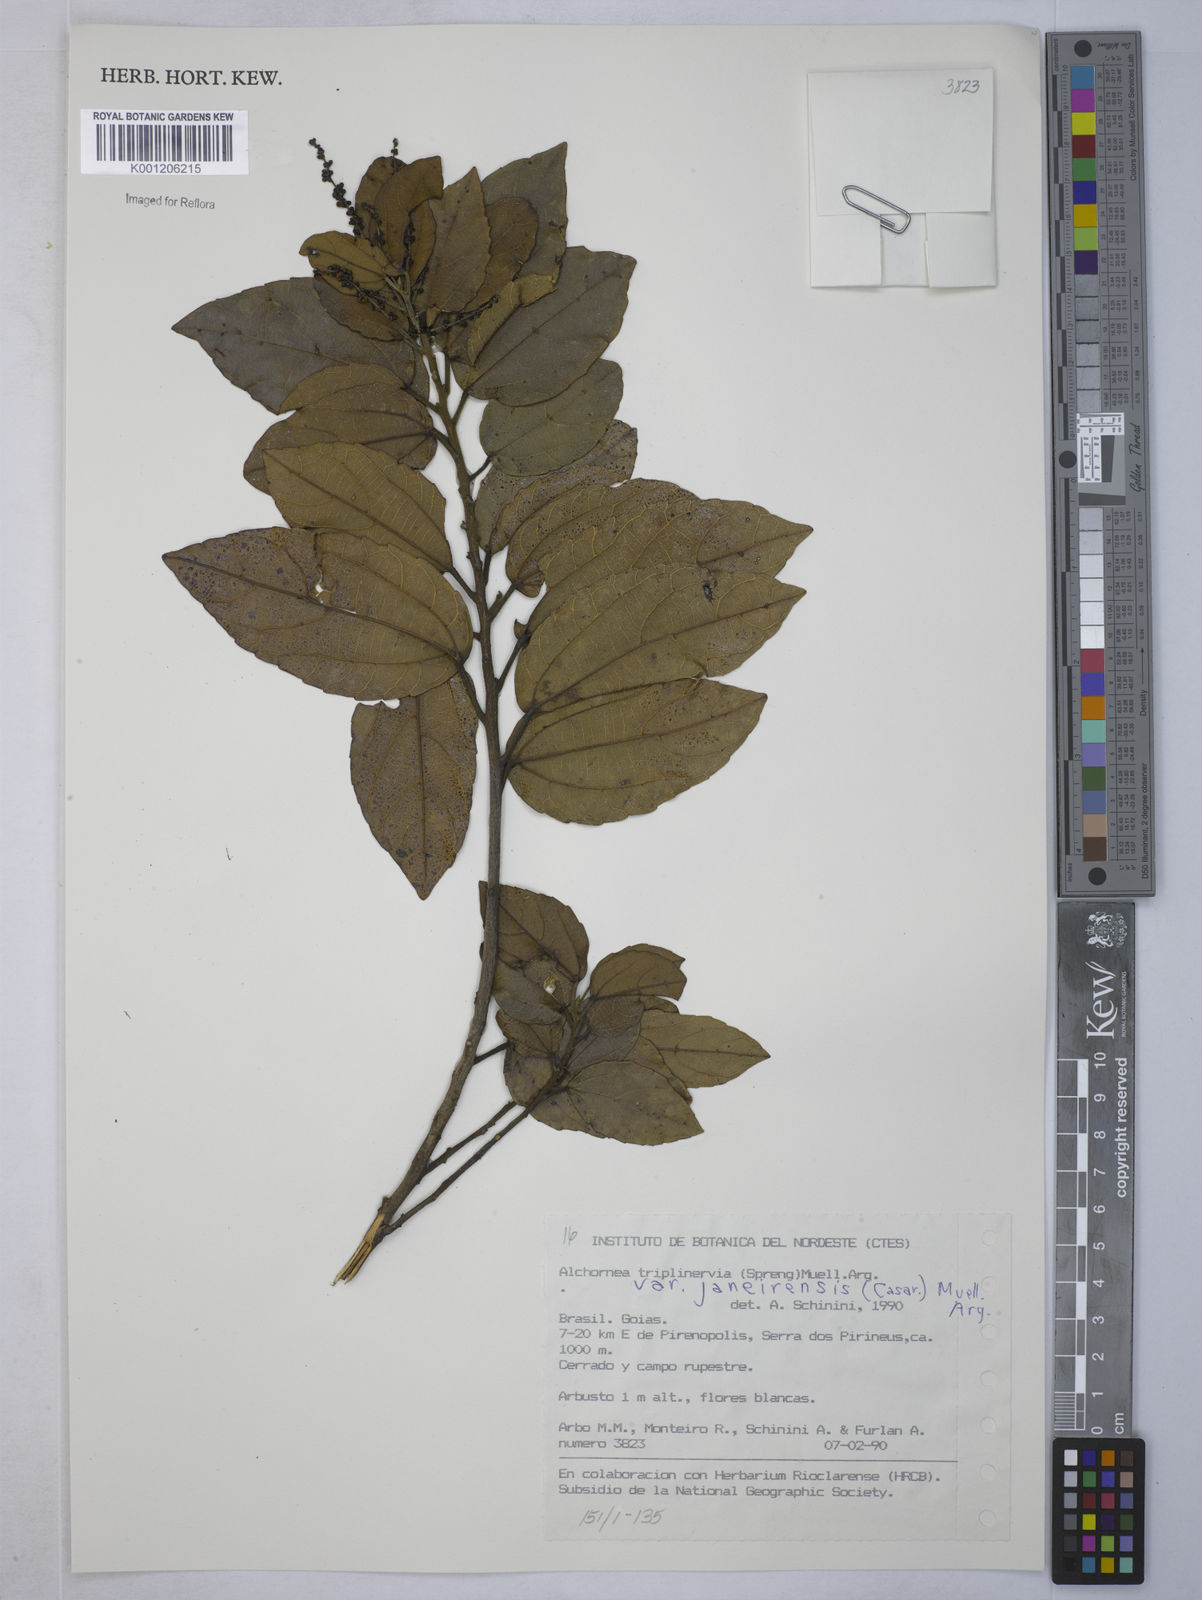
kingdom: Plantae
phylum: Tracheophyta
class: Magnoliopsida
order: Malpighiales
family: Euphorbiaceae
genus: Alchornea
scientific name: Alchornea
